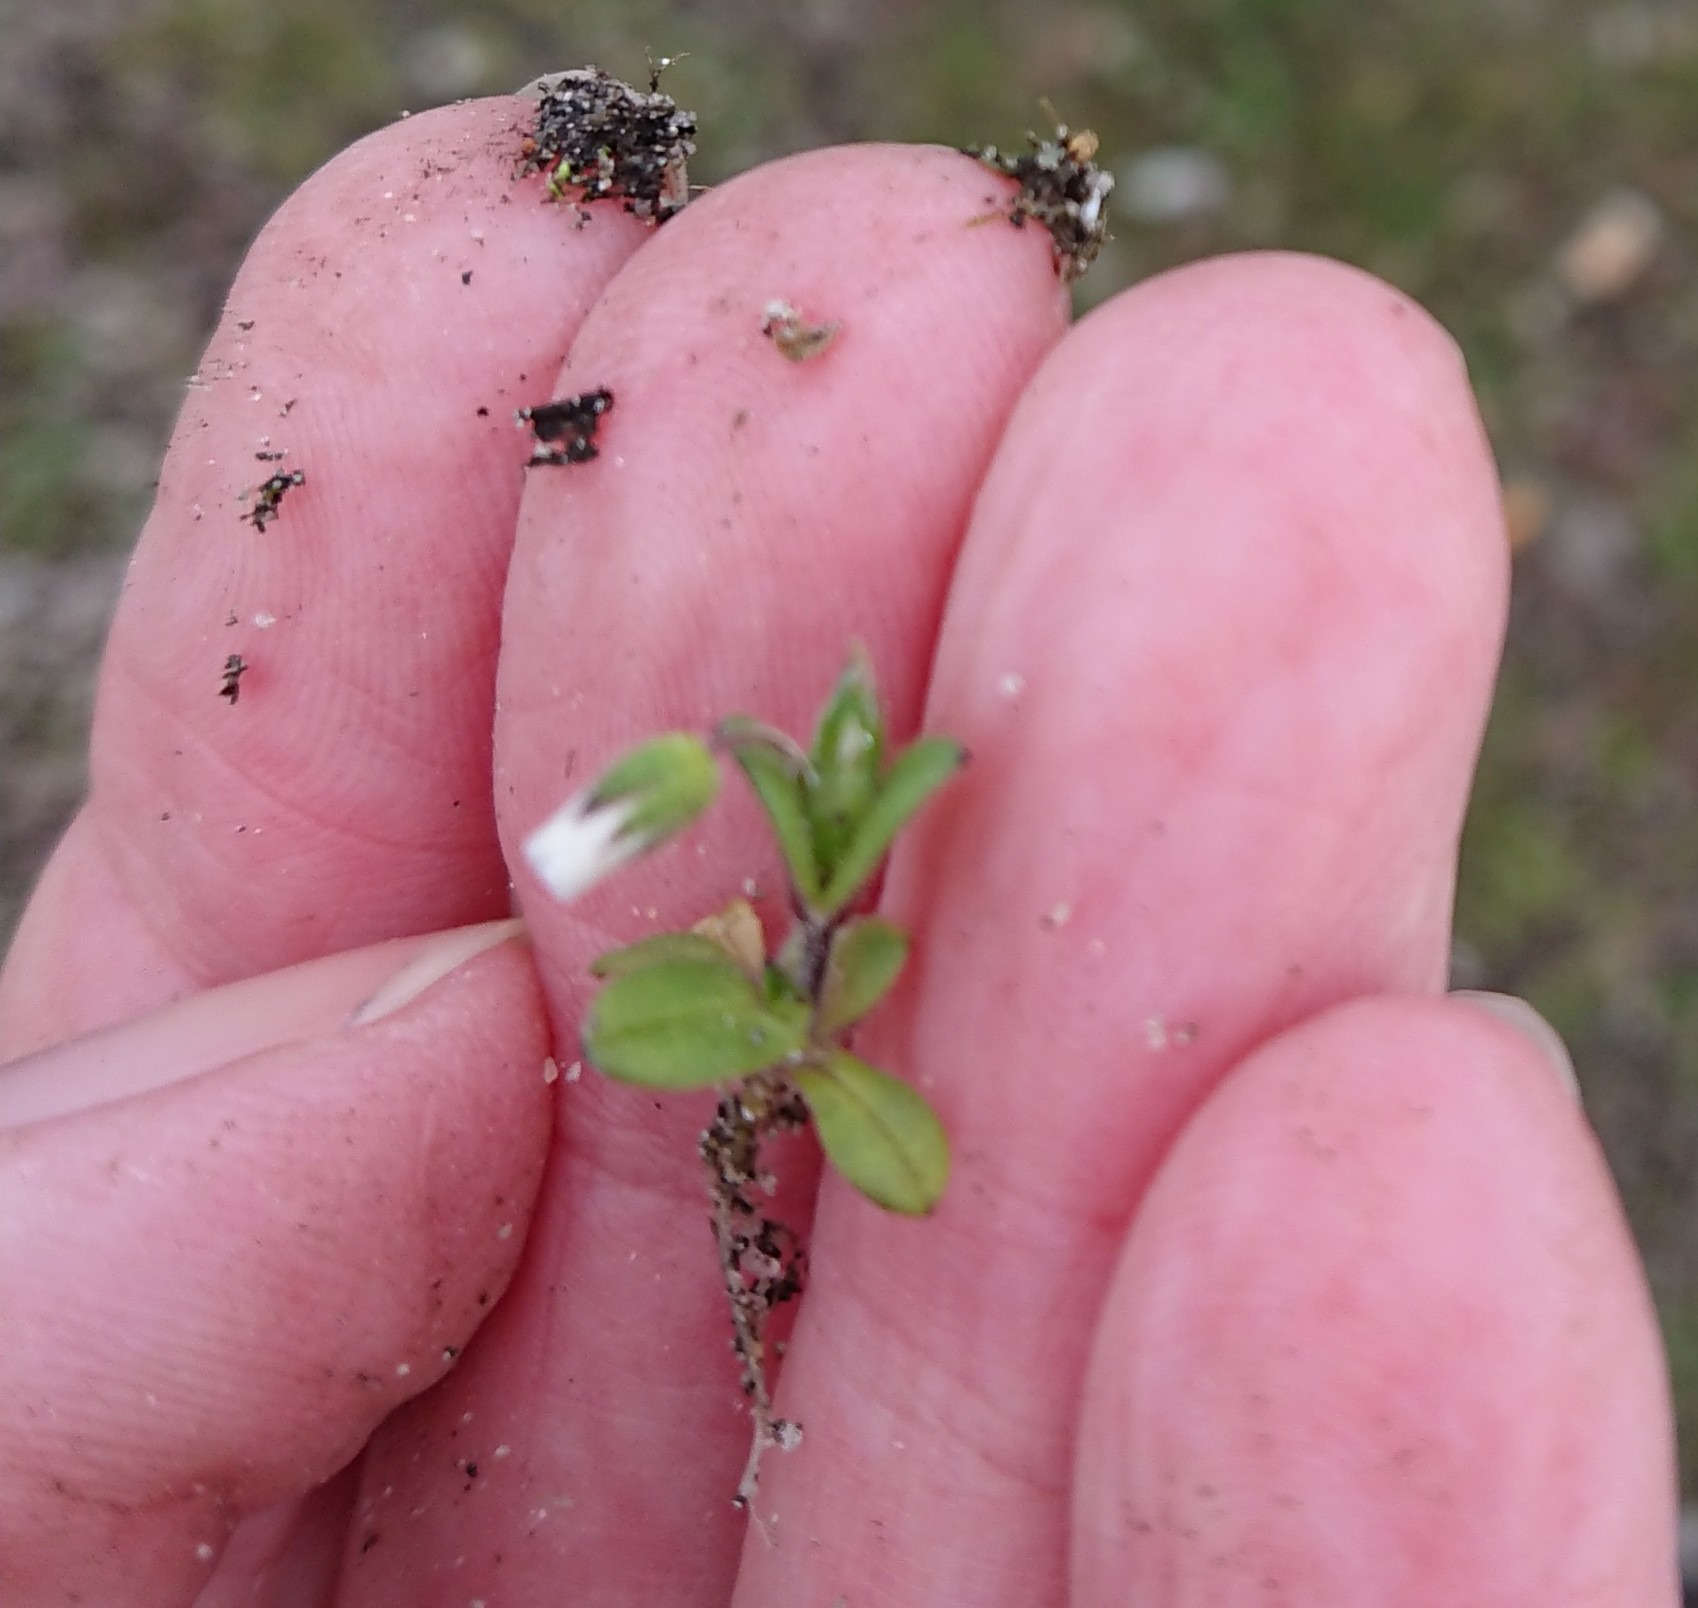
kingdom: Plantae
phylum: Tracheophyta
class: Magnoliopsida
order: Caryophyllales
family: Caryophyllaceae
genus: Cerastium
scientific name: Cerastium semidecandrum
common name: Femhannet hønsetarm
